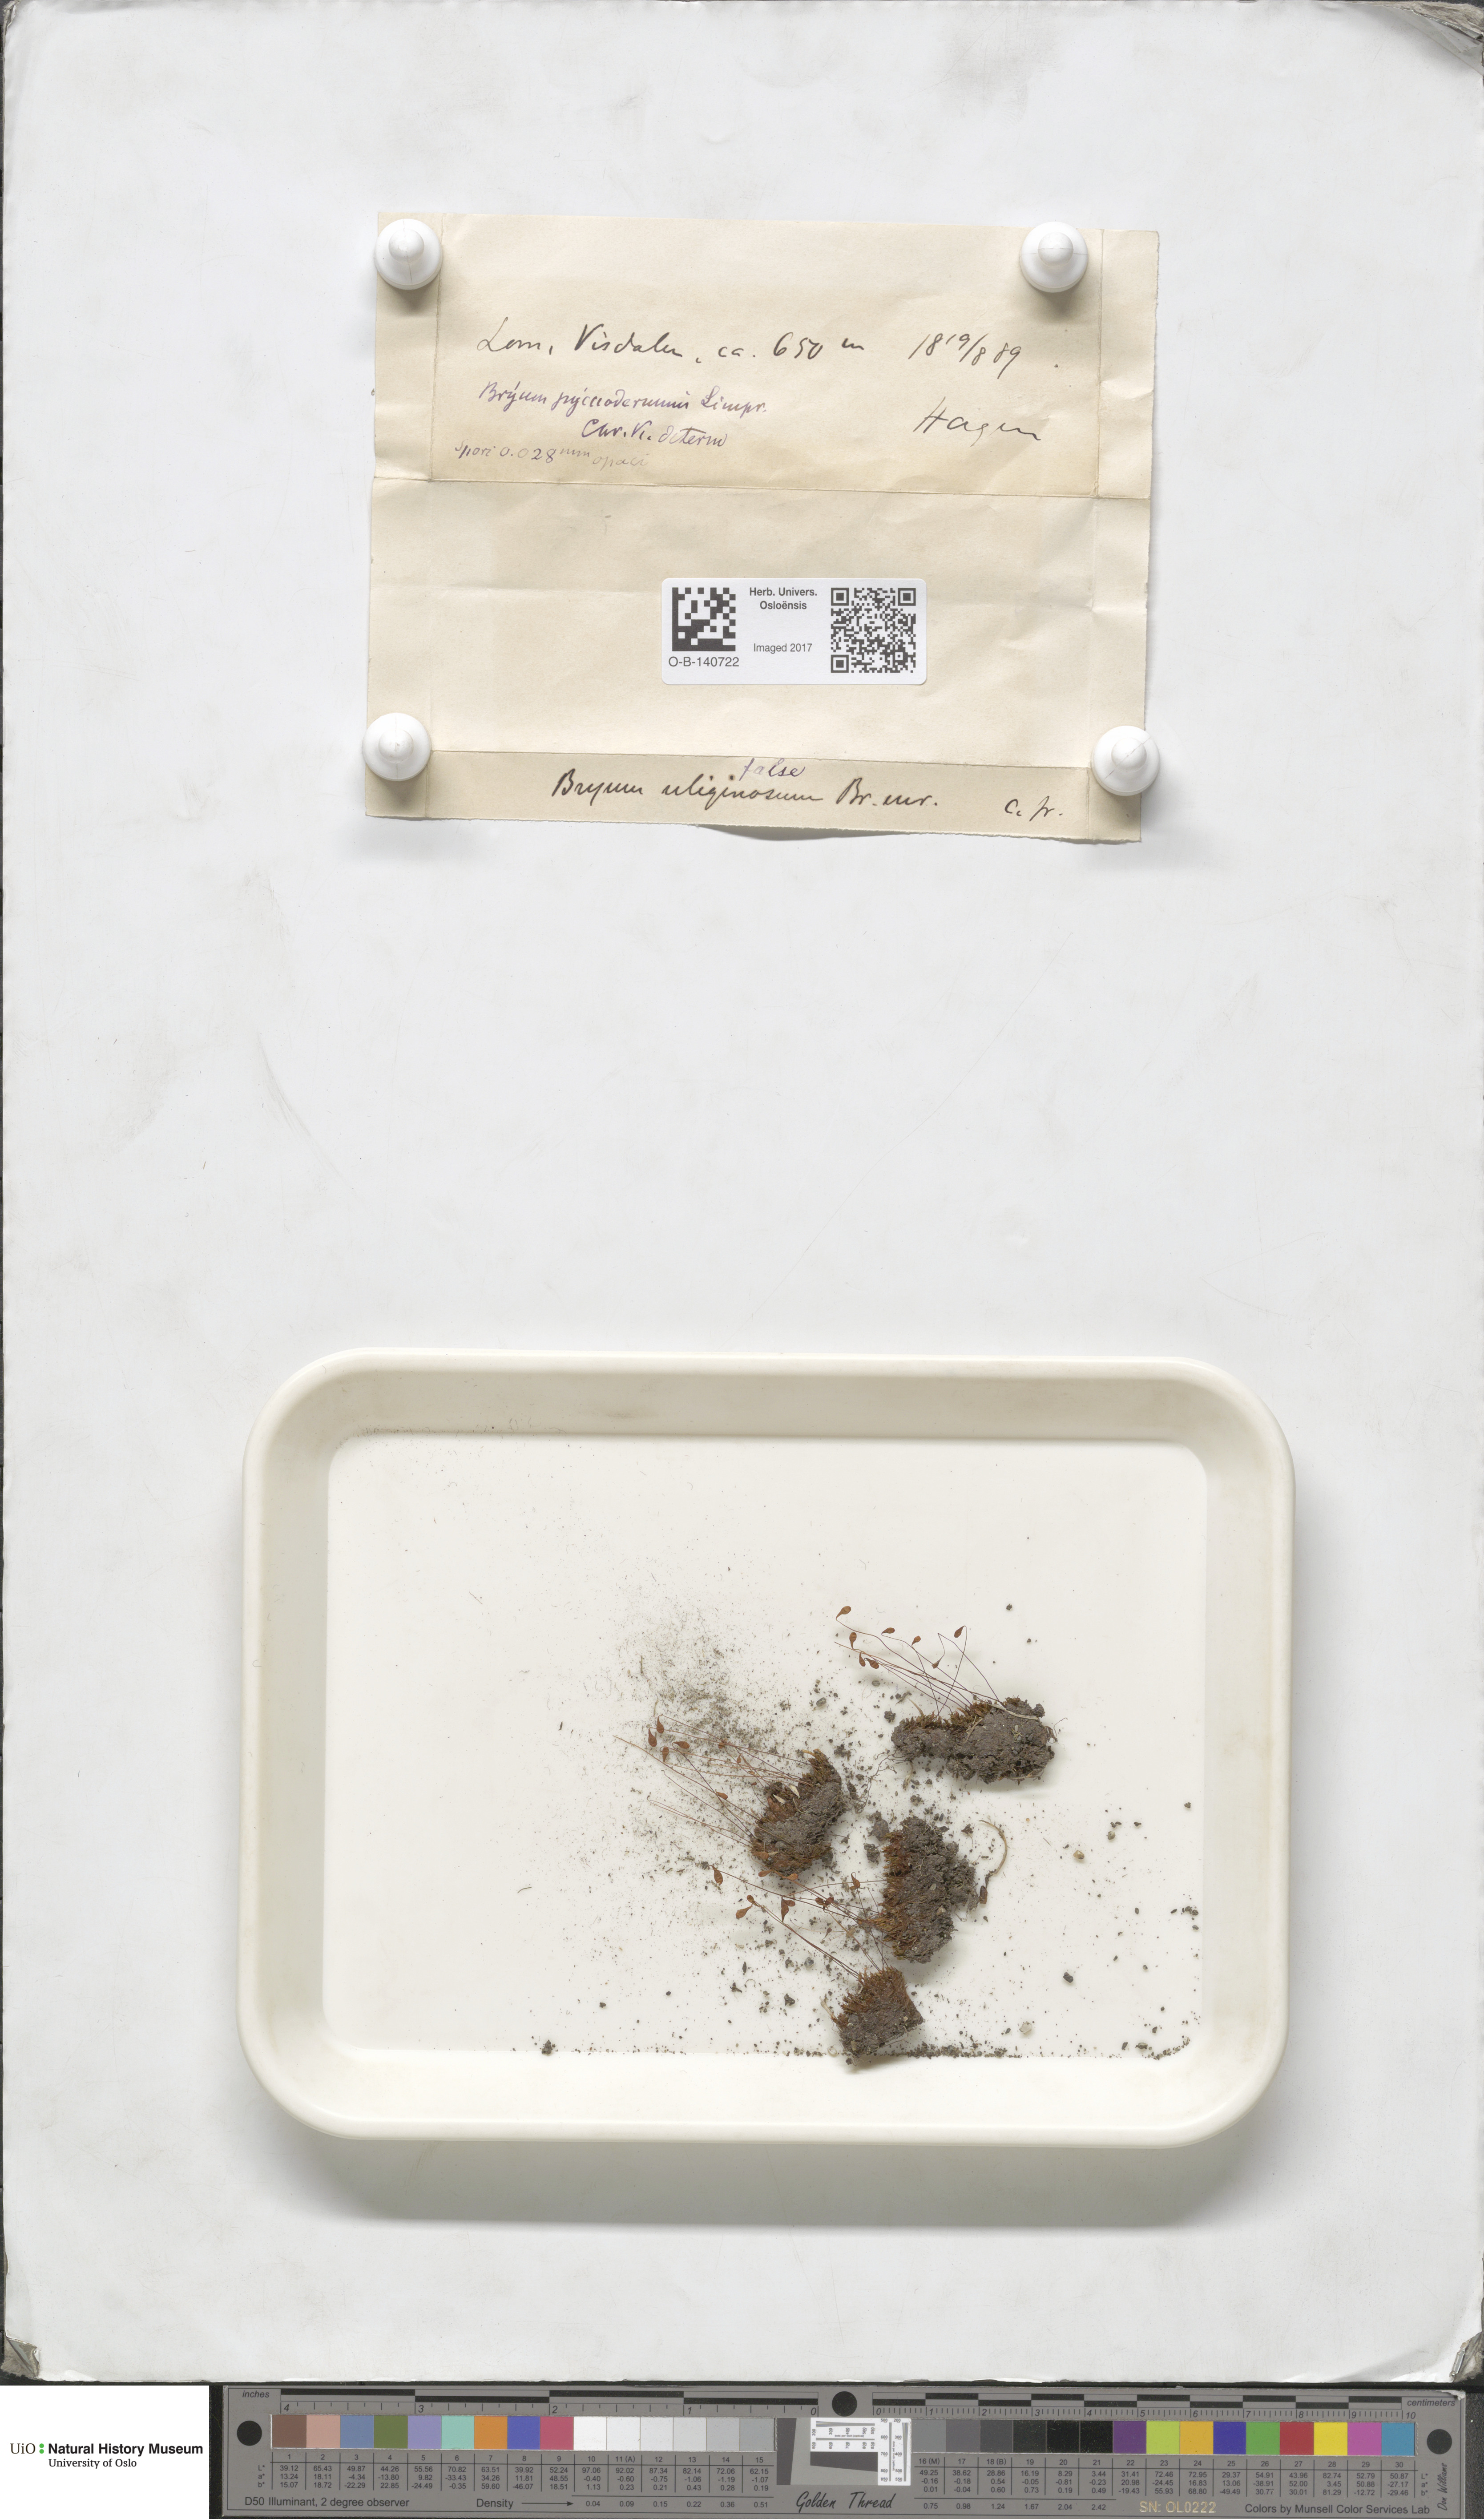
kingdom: Plantae
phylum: Bryophyta
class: Bryopsida
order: Bryales
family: Bryaceae
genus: Ptychostomum
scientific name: Ptychostomum pallens
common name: Pale thread-moss
